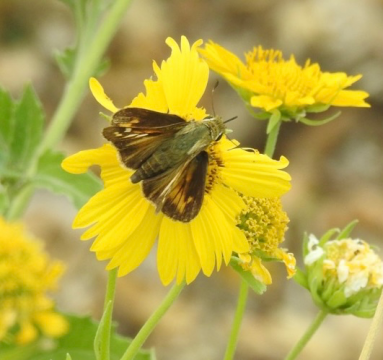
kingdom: Animalia
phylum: Arthropoda
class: Insecta
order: Lepidoptera
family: Hesperiidae
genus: Atalopedes
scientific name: Atalopedes campestris
